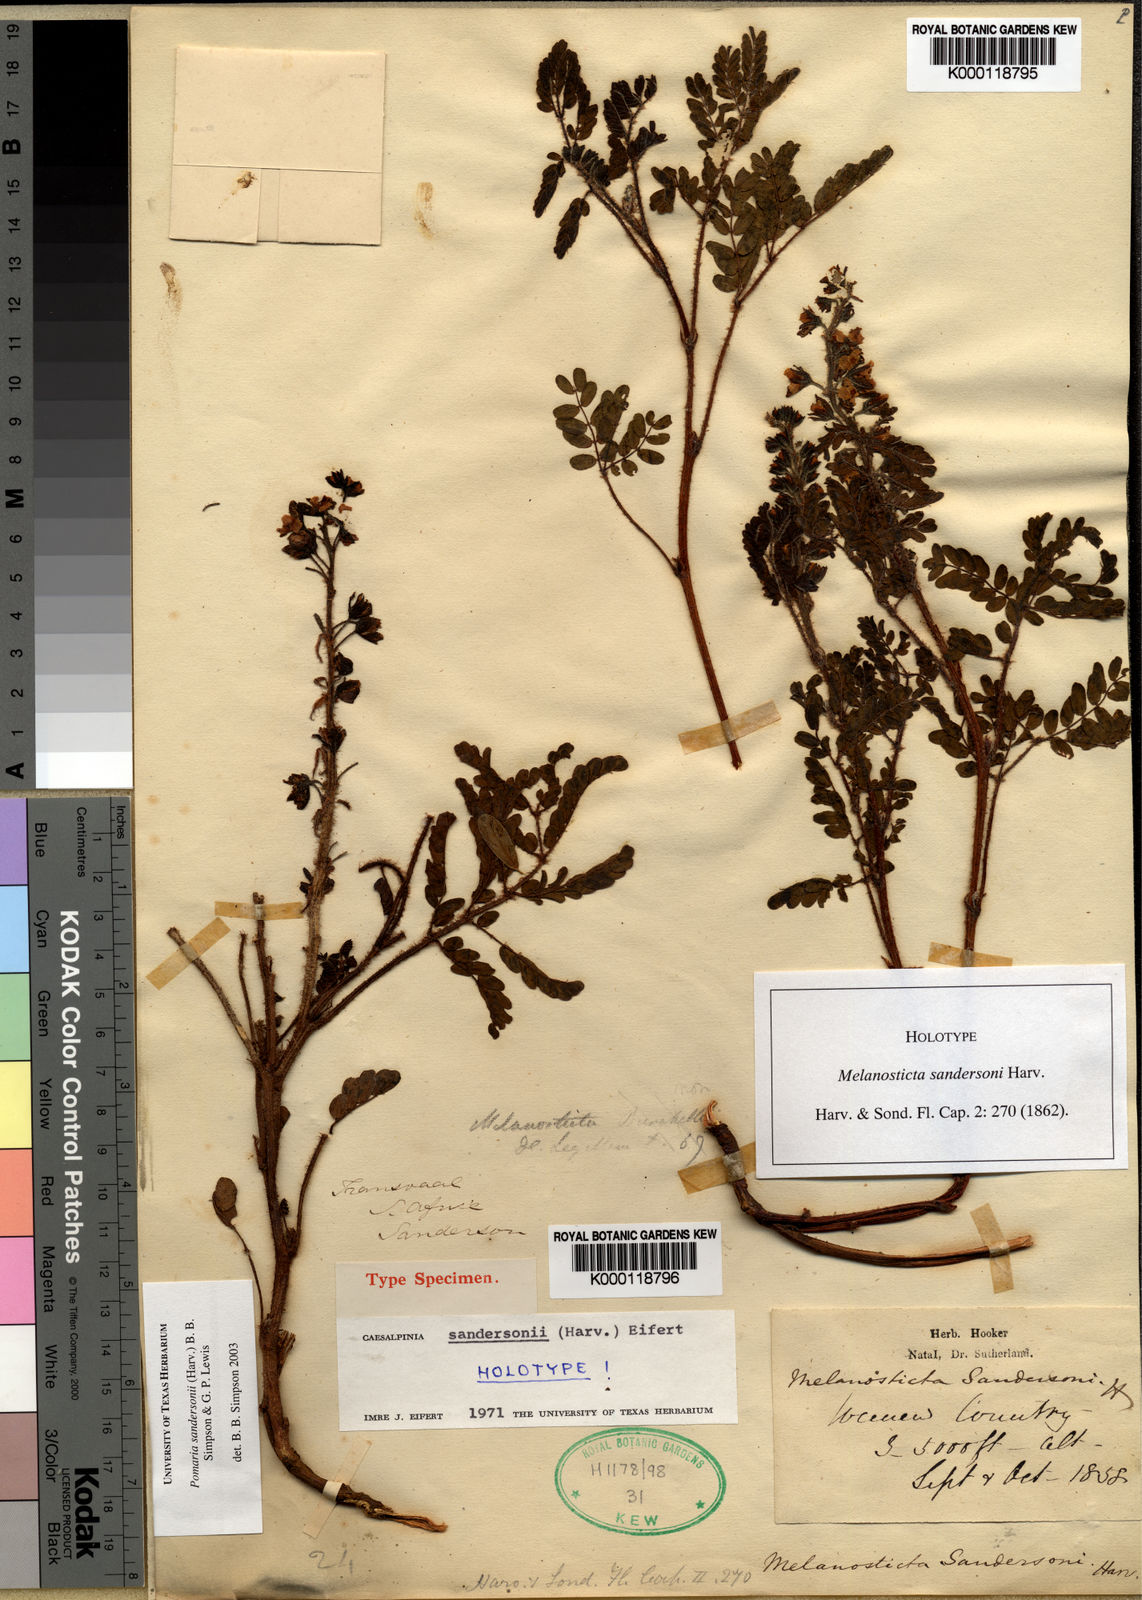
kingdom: Plantae
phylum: Tracheophyta
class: Magnoliopsida
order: Fabales
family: Fabaceae
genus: Pomaria
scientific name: Pomaria
